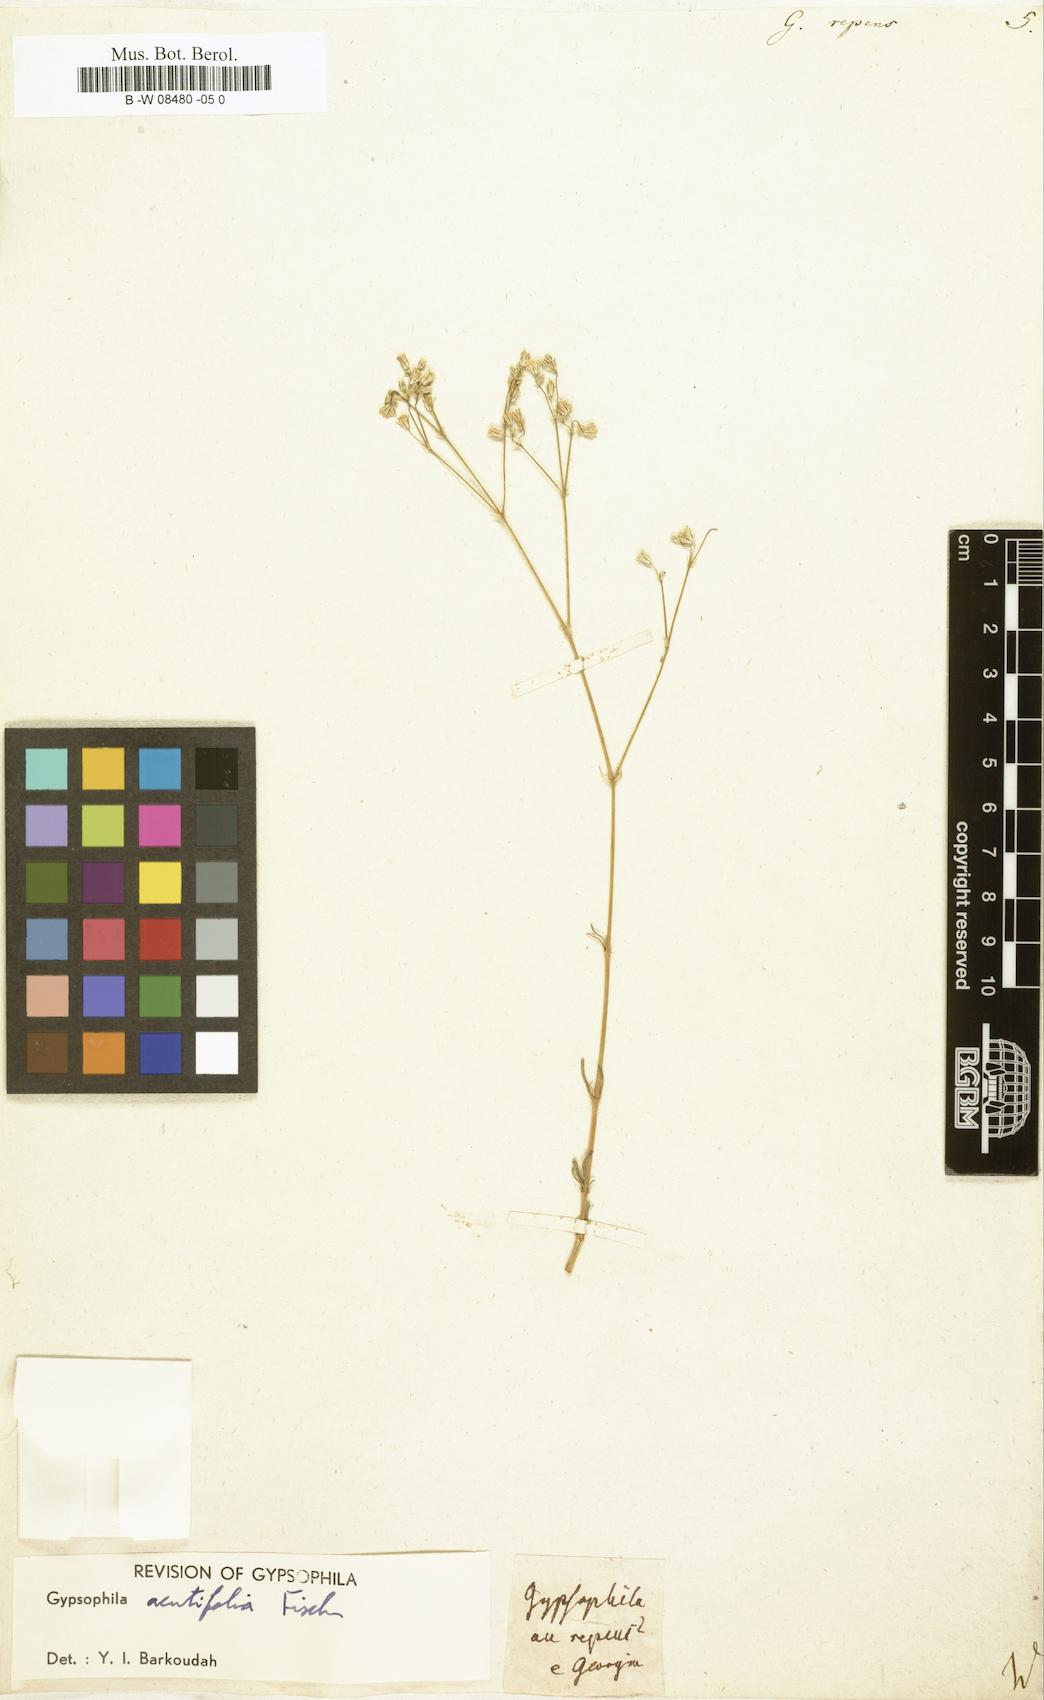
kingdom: Plantae
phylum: Tracheophyta
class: Magnoliopsida
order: Caryophyllales
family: Caryophyllaceae
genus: Gypsophila
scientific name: Gypsophila repens
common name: Creeping baby's-breath
